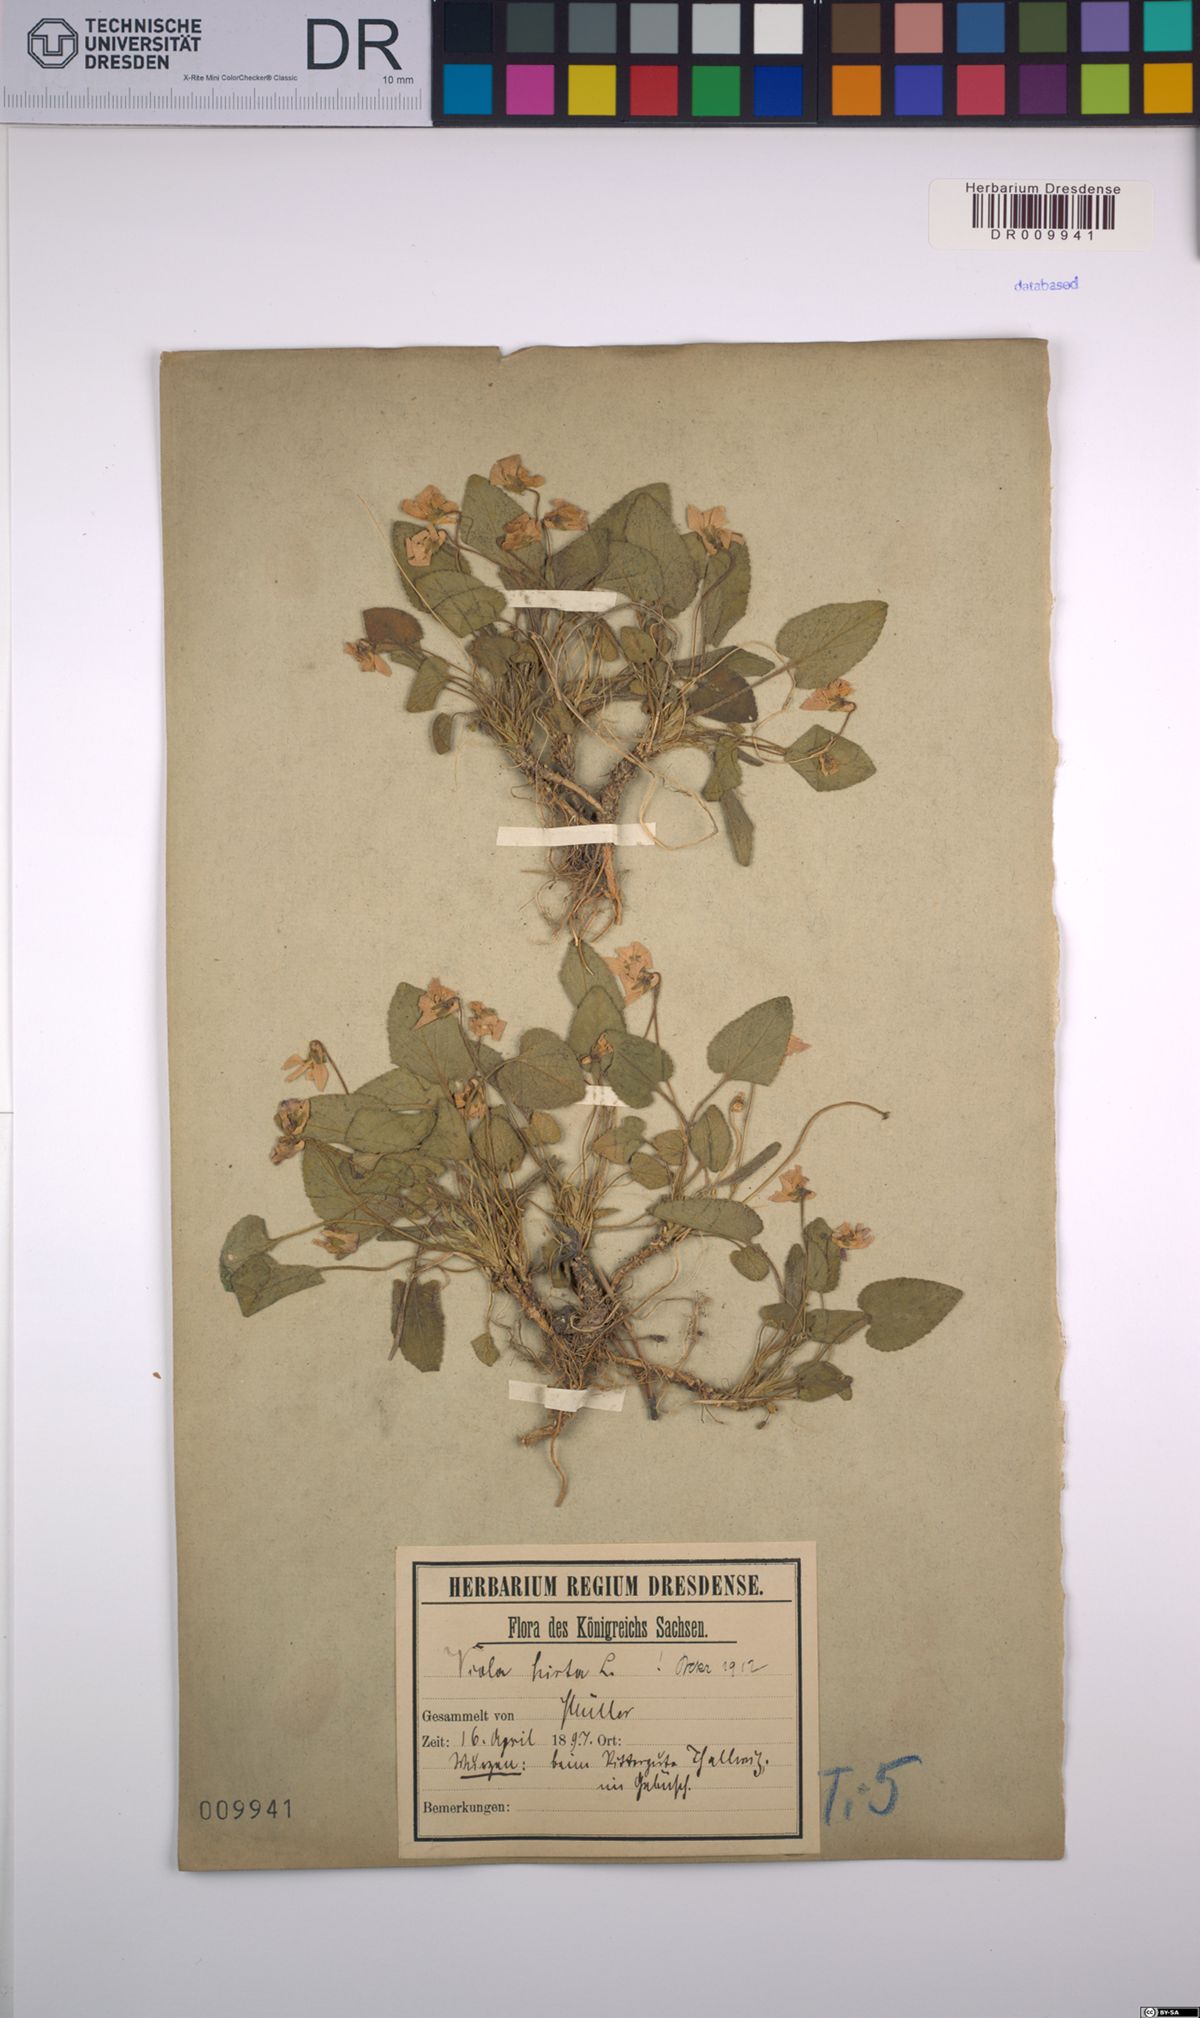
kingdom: Plantae
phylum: Tracheophyta
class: Magnoliopsida
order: Malpighiales
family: Violaceae
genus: Viola
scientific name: Viola hirta
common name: Hairy violet
